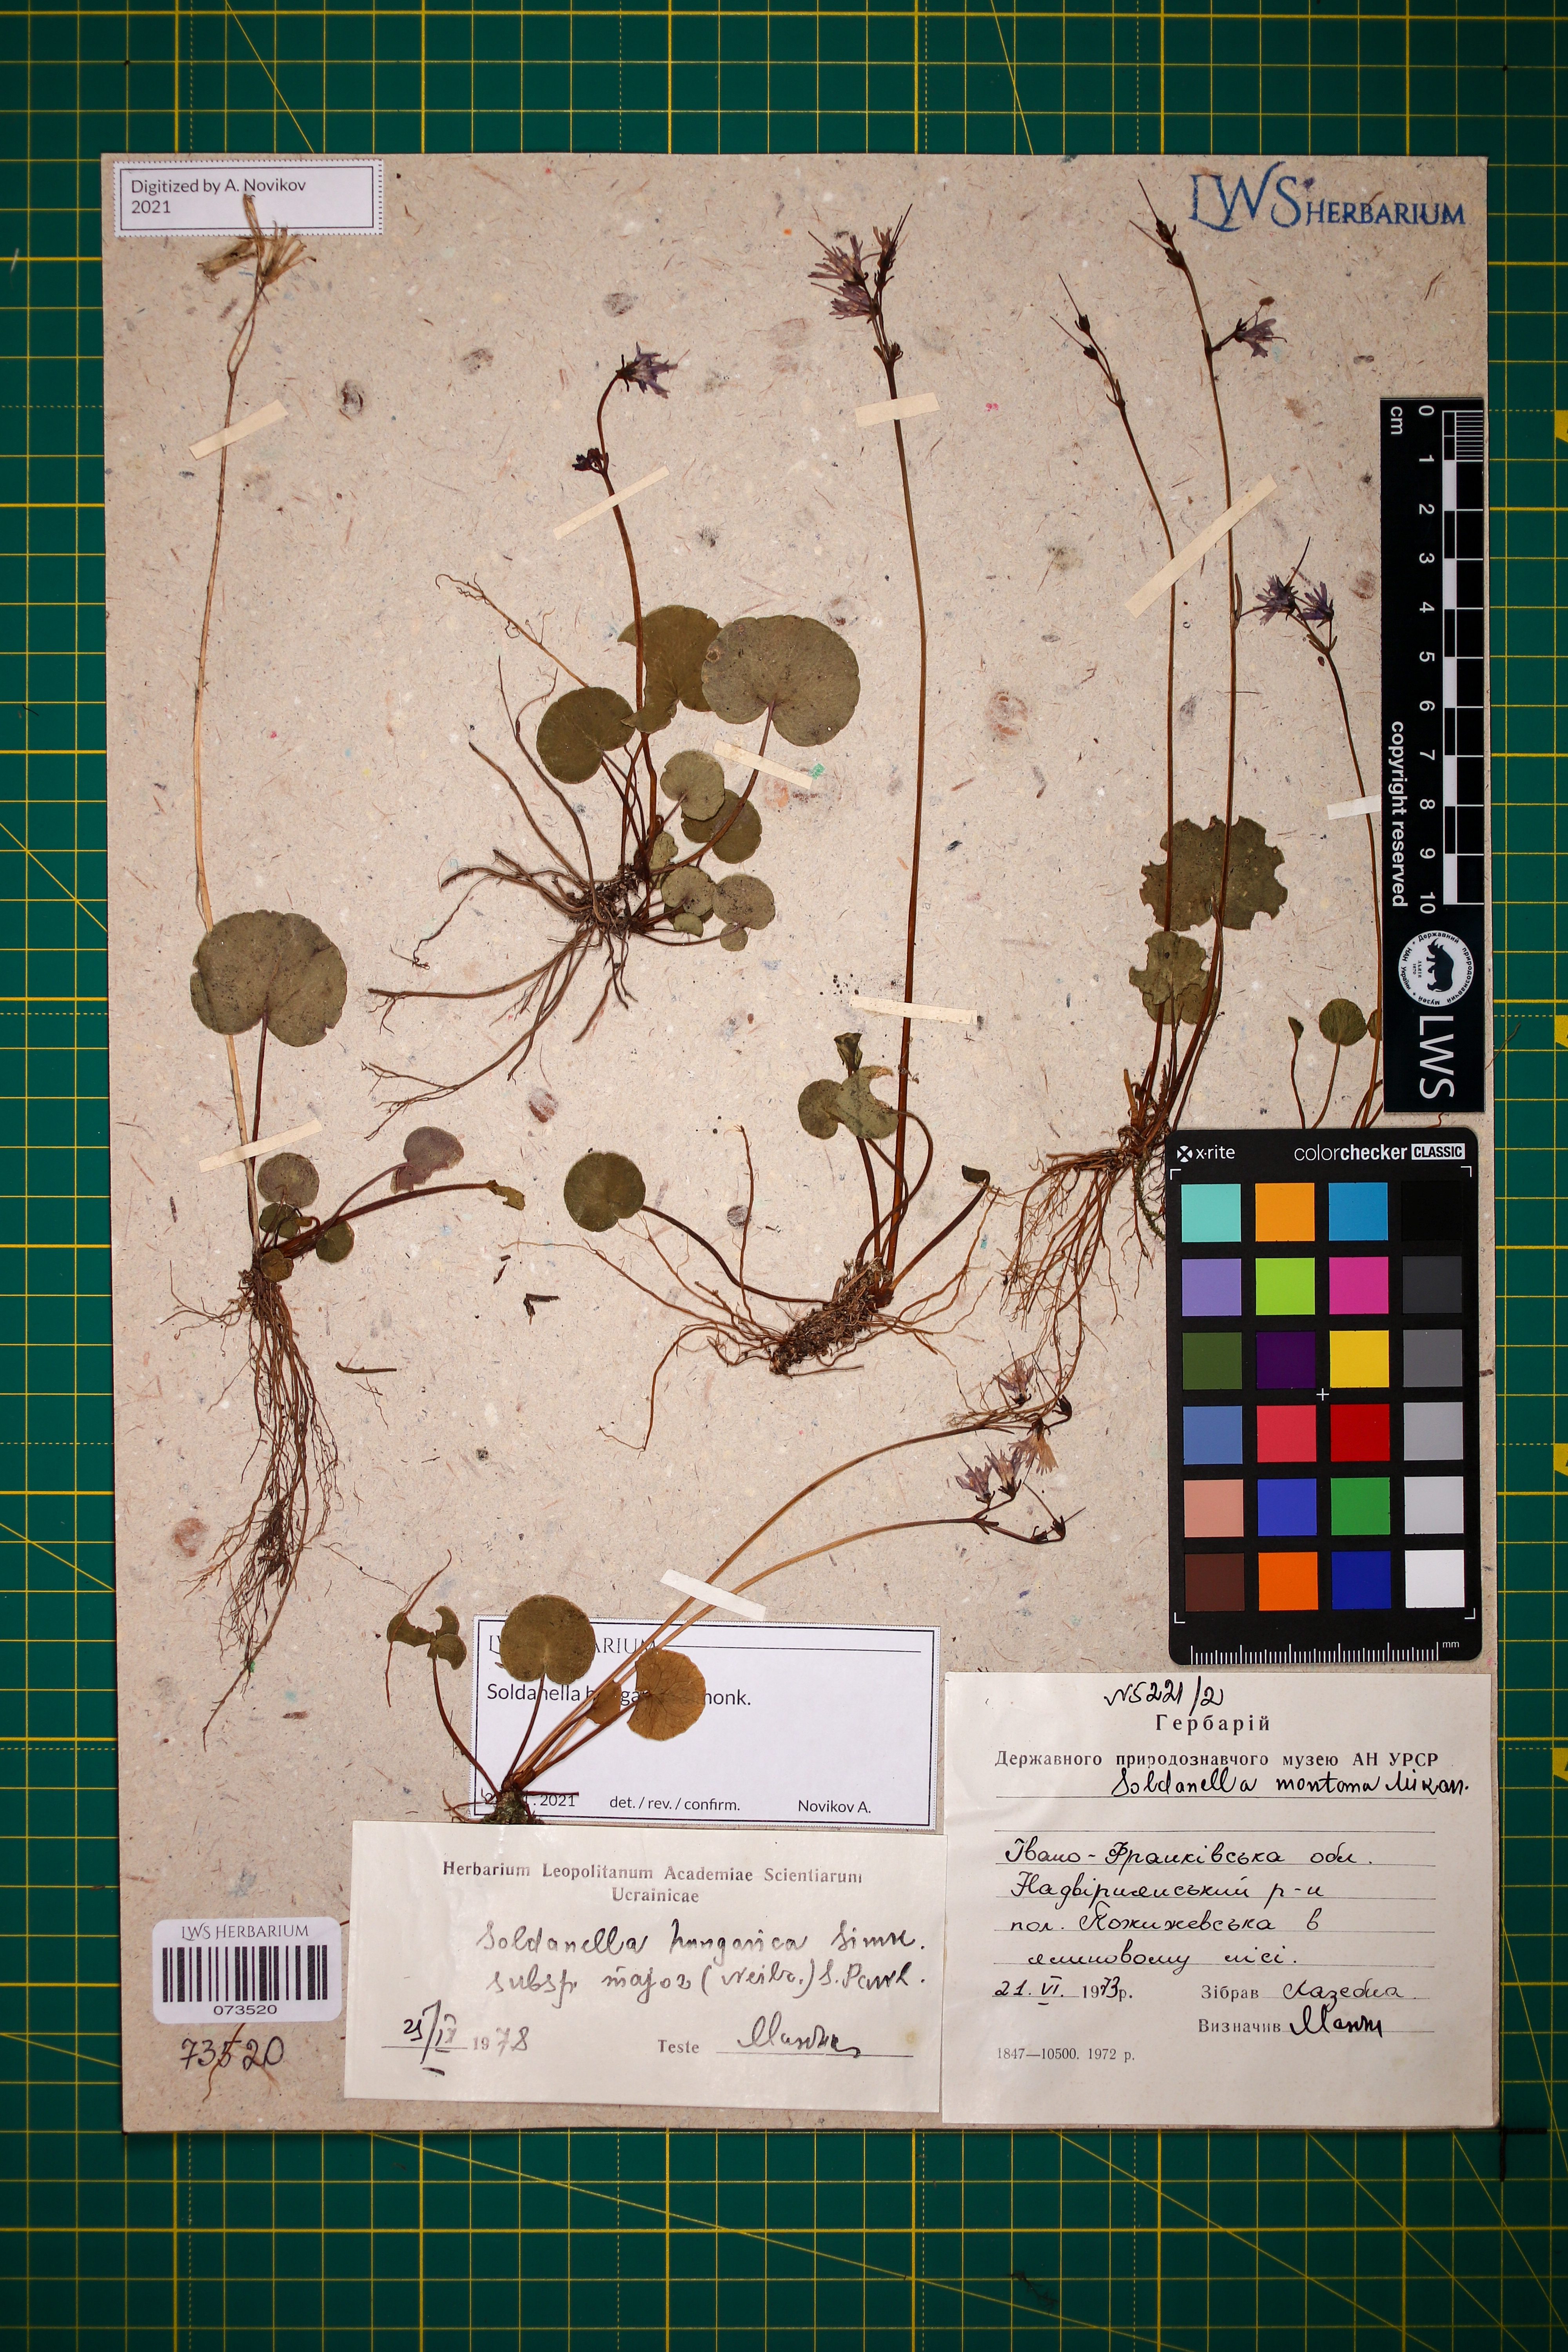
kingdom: Plantae
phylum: Tracheophyta
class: Magnoliopsida
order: Ericales
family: Primulaceae
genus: Soldanella
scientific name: Soldanella hungarica
